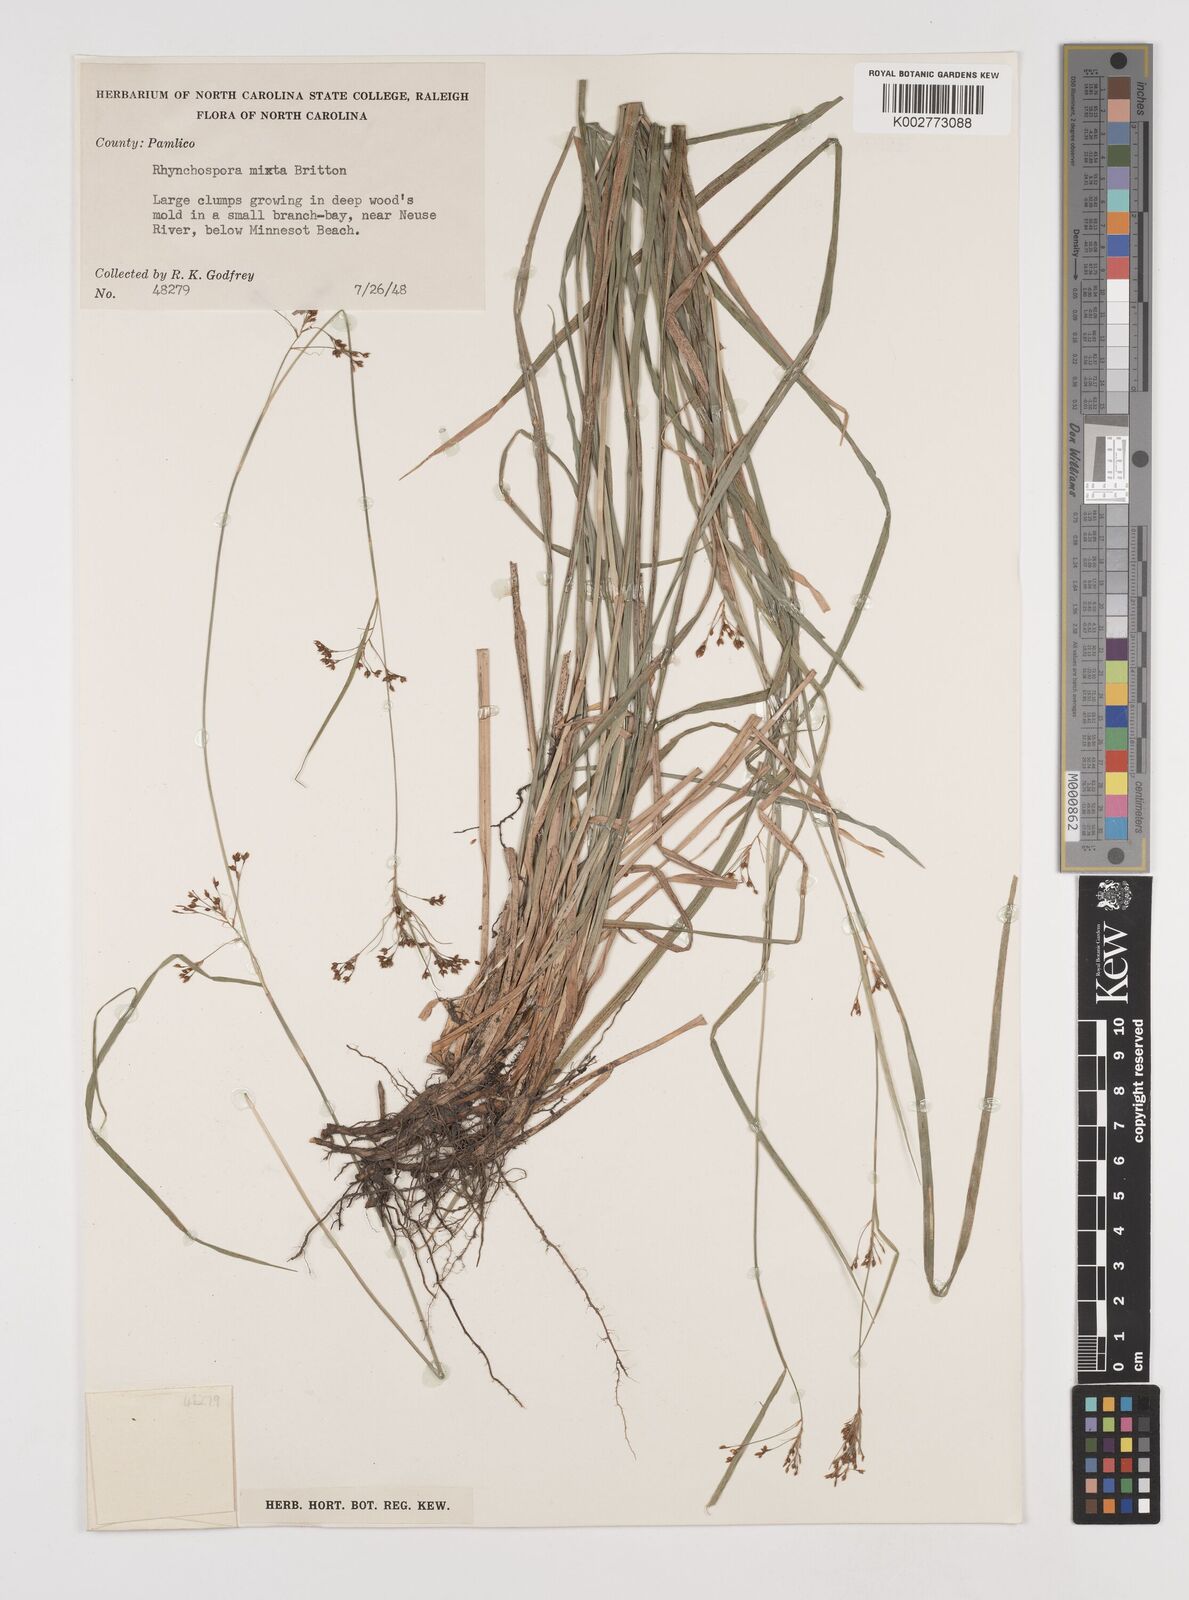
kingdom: Plantae
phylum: Tracheophyta
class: Liliopsida
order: Poales
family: Cyperaceae
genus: Rhynchospora
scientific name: Rhynchospora mixta
